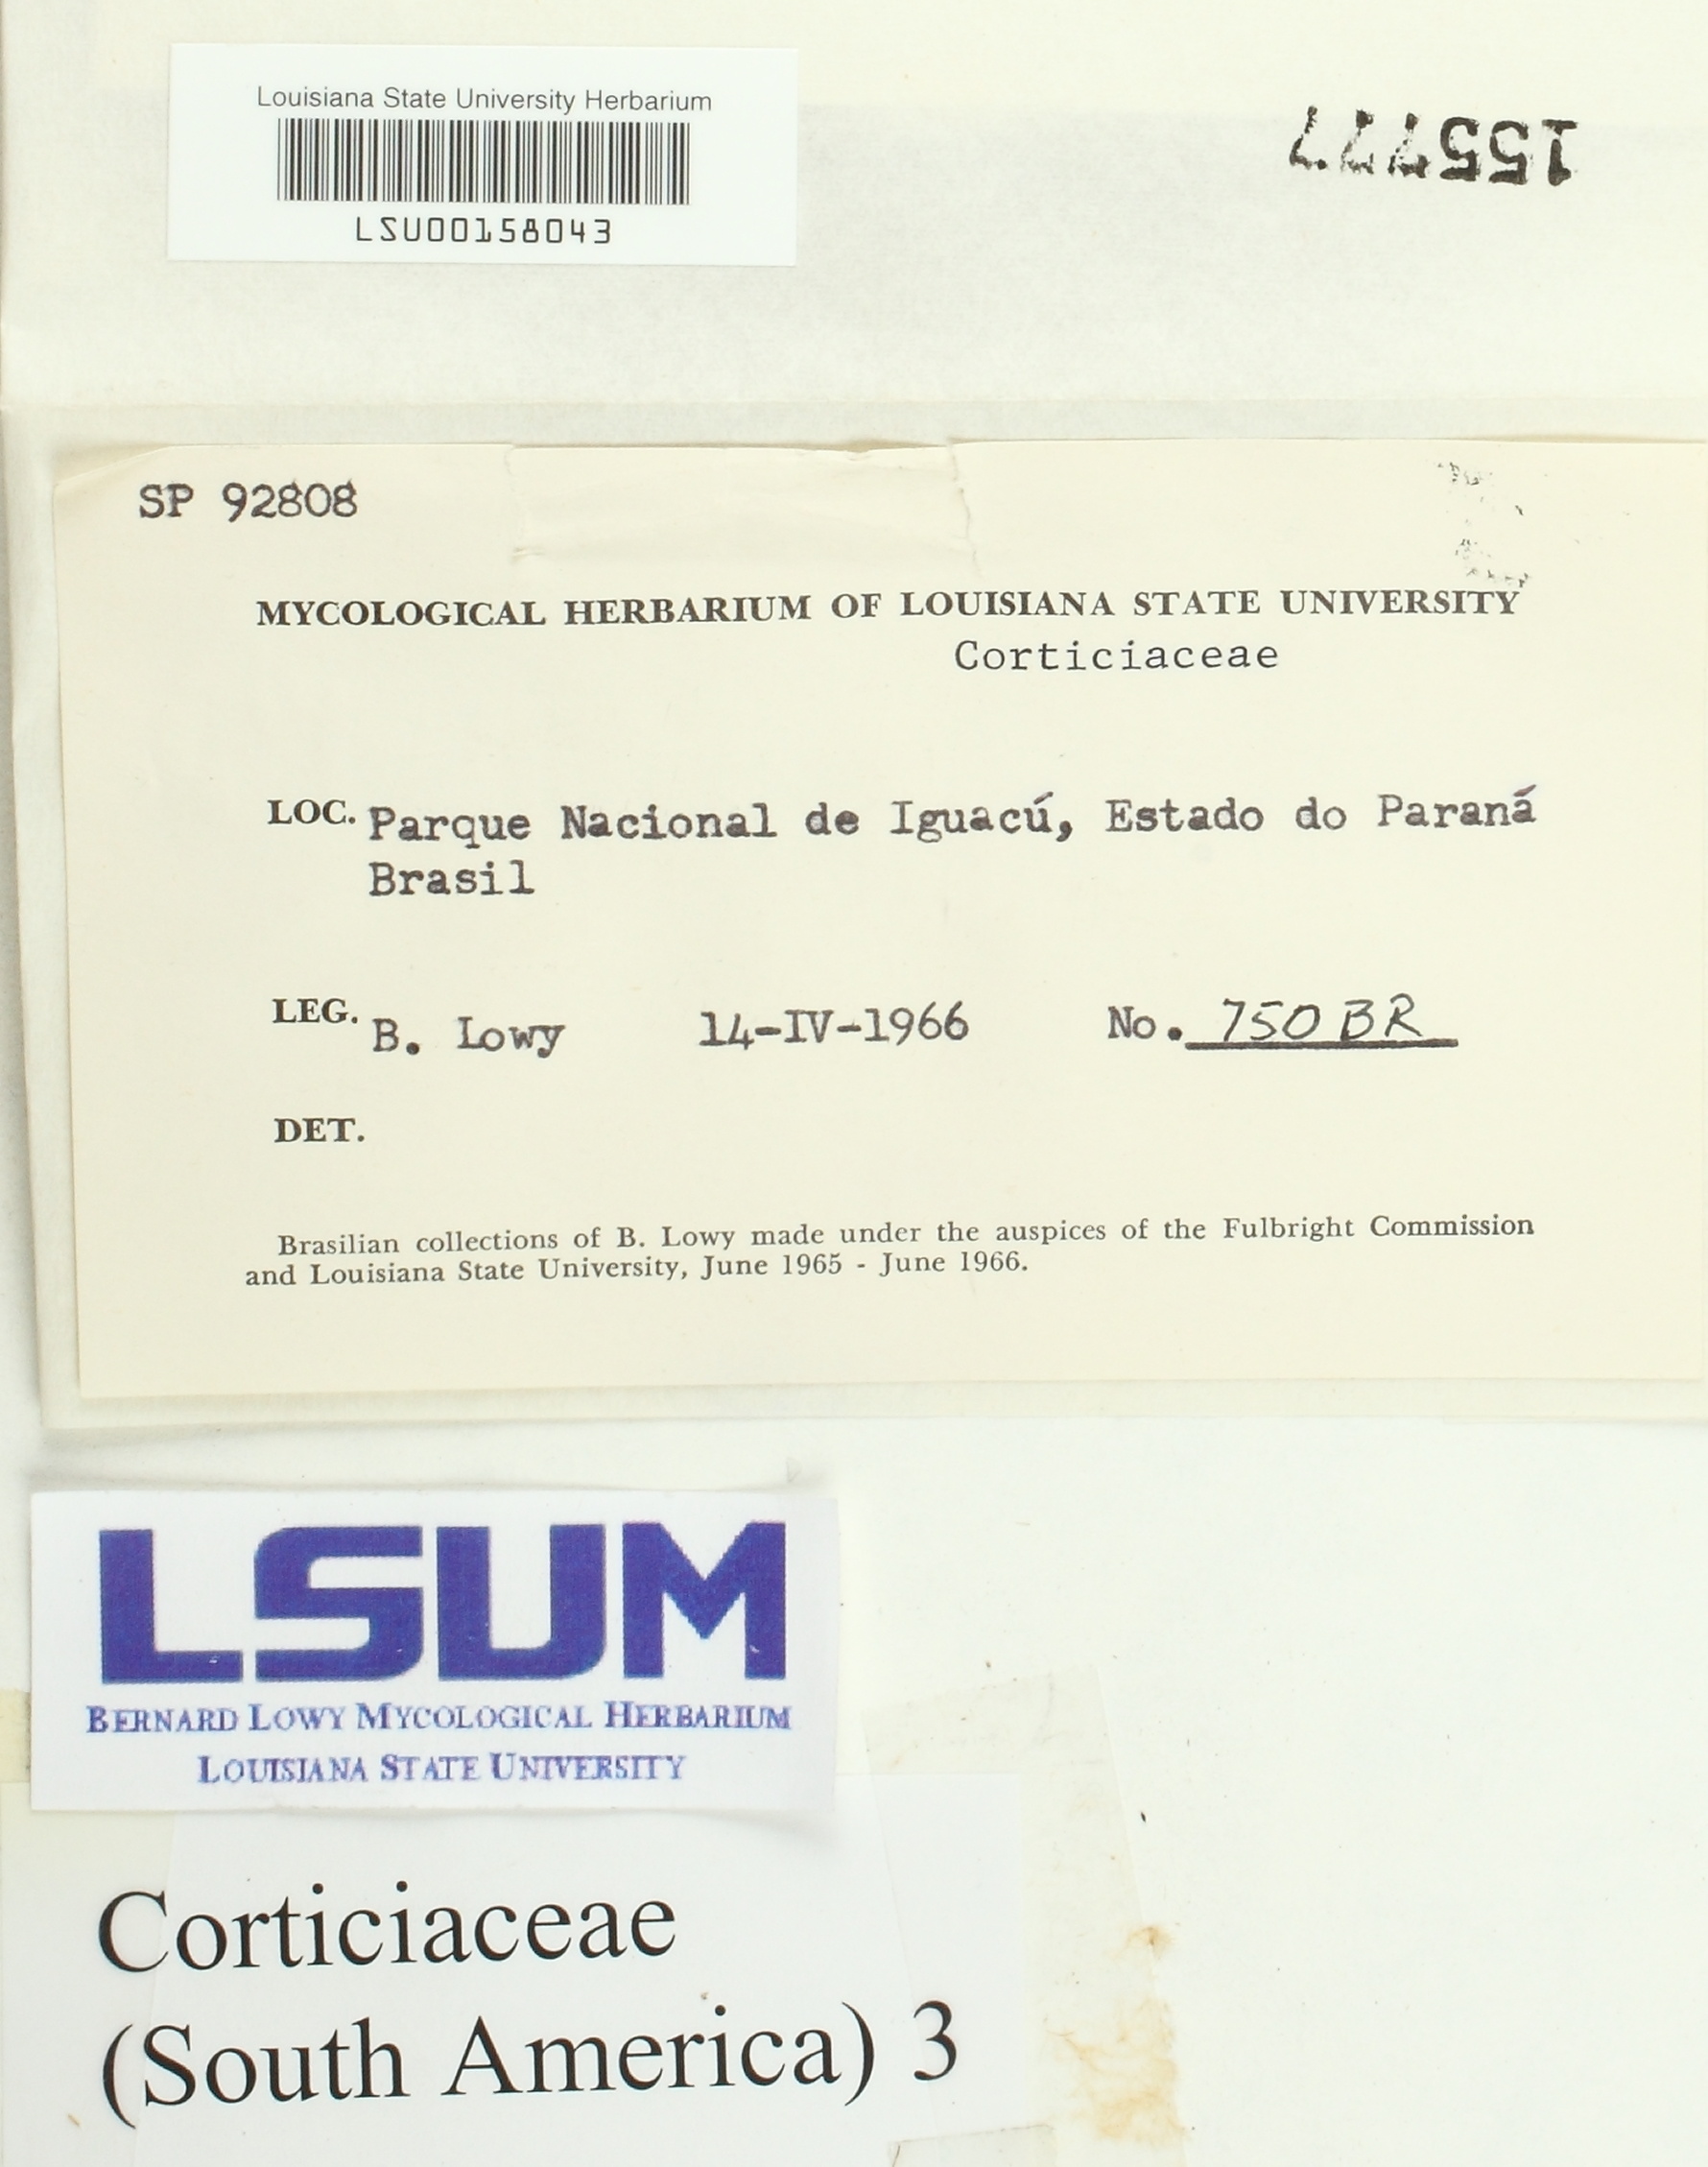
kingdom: Fungi
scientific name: Fungi
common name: Fungi
